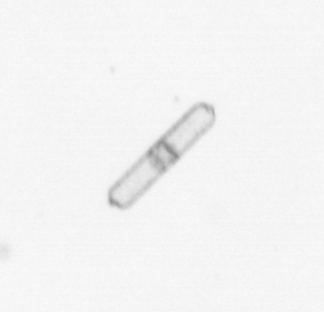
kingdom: Chromista
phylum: Ochrophyta
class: Bacillariophyceae
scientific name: Bacillariophyceae
